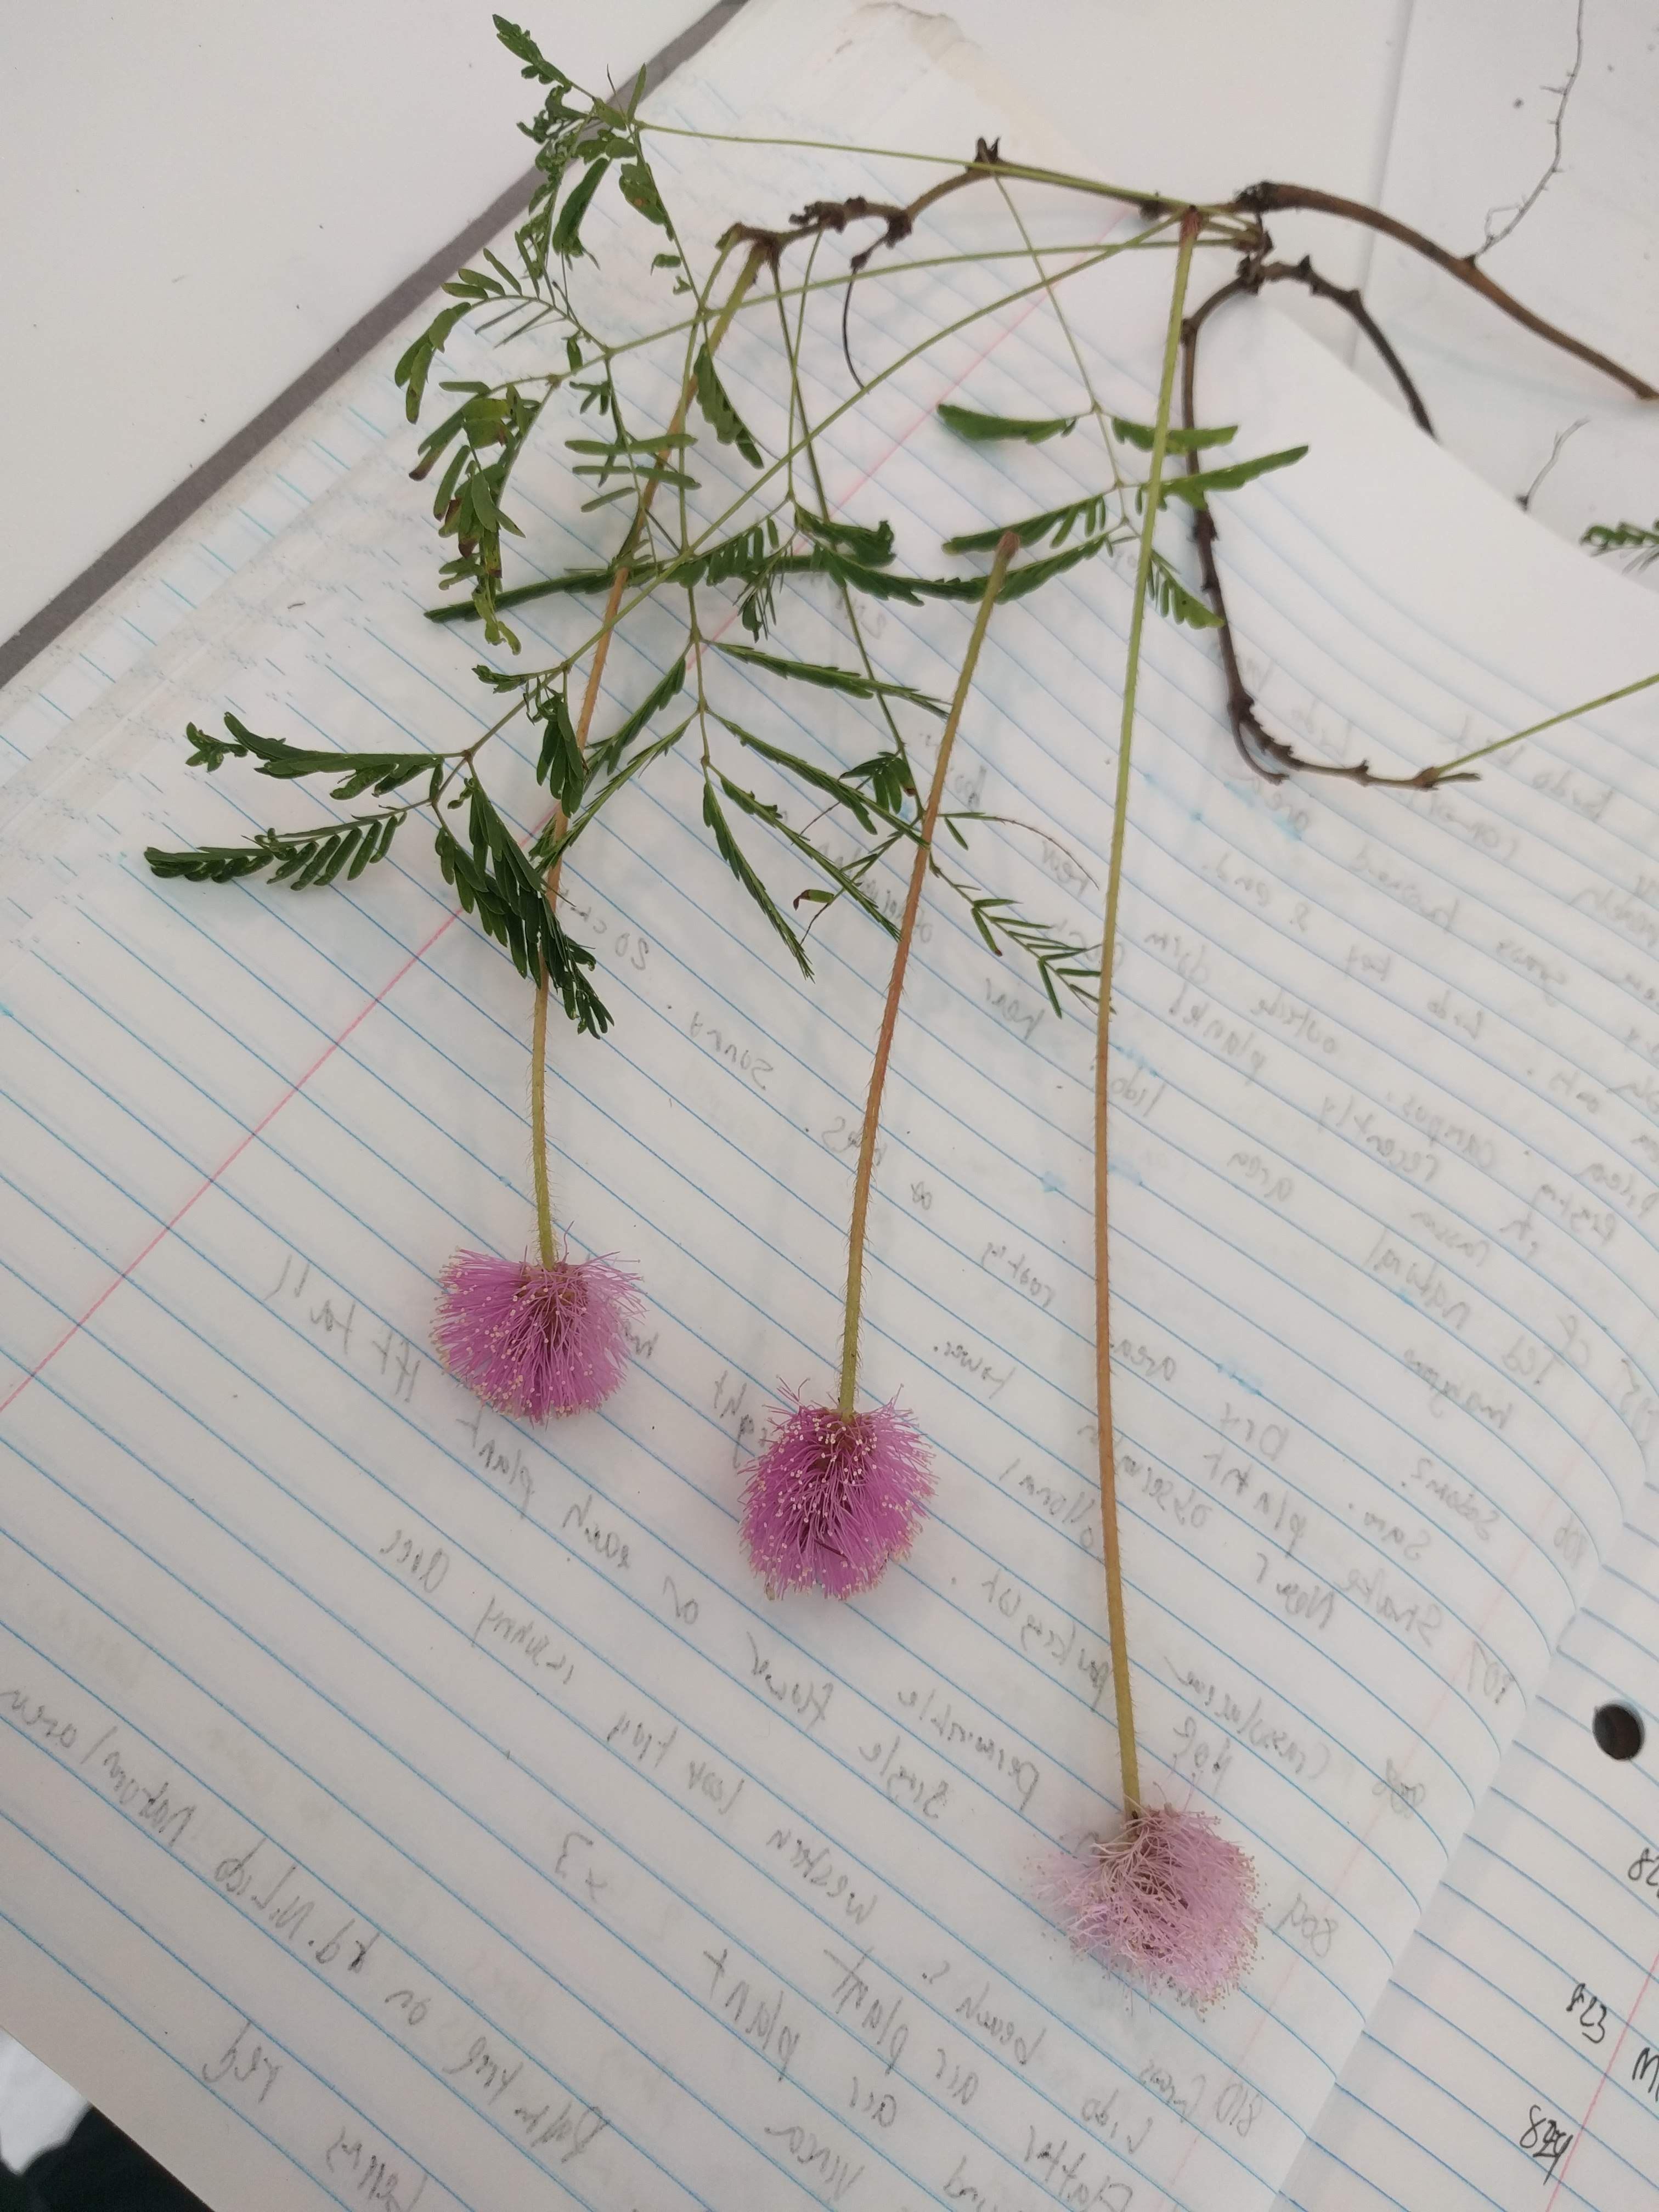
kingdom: Plantae
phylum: Tracheophyta
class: Magnoliopsida
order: Fabales
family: Fabaceae
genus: Mimosa
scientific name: Mimosa strigillosa
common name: Mimosa
